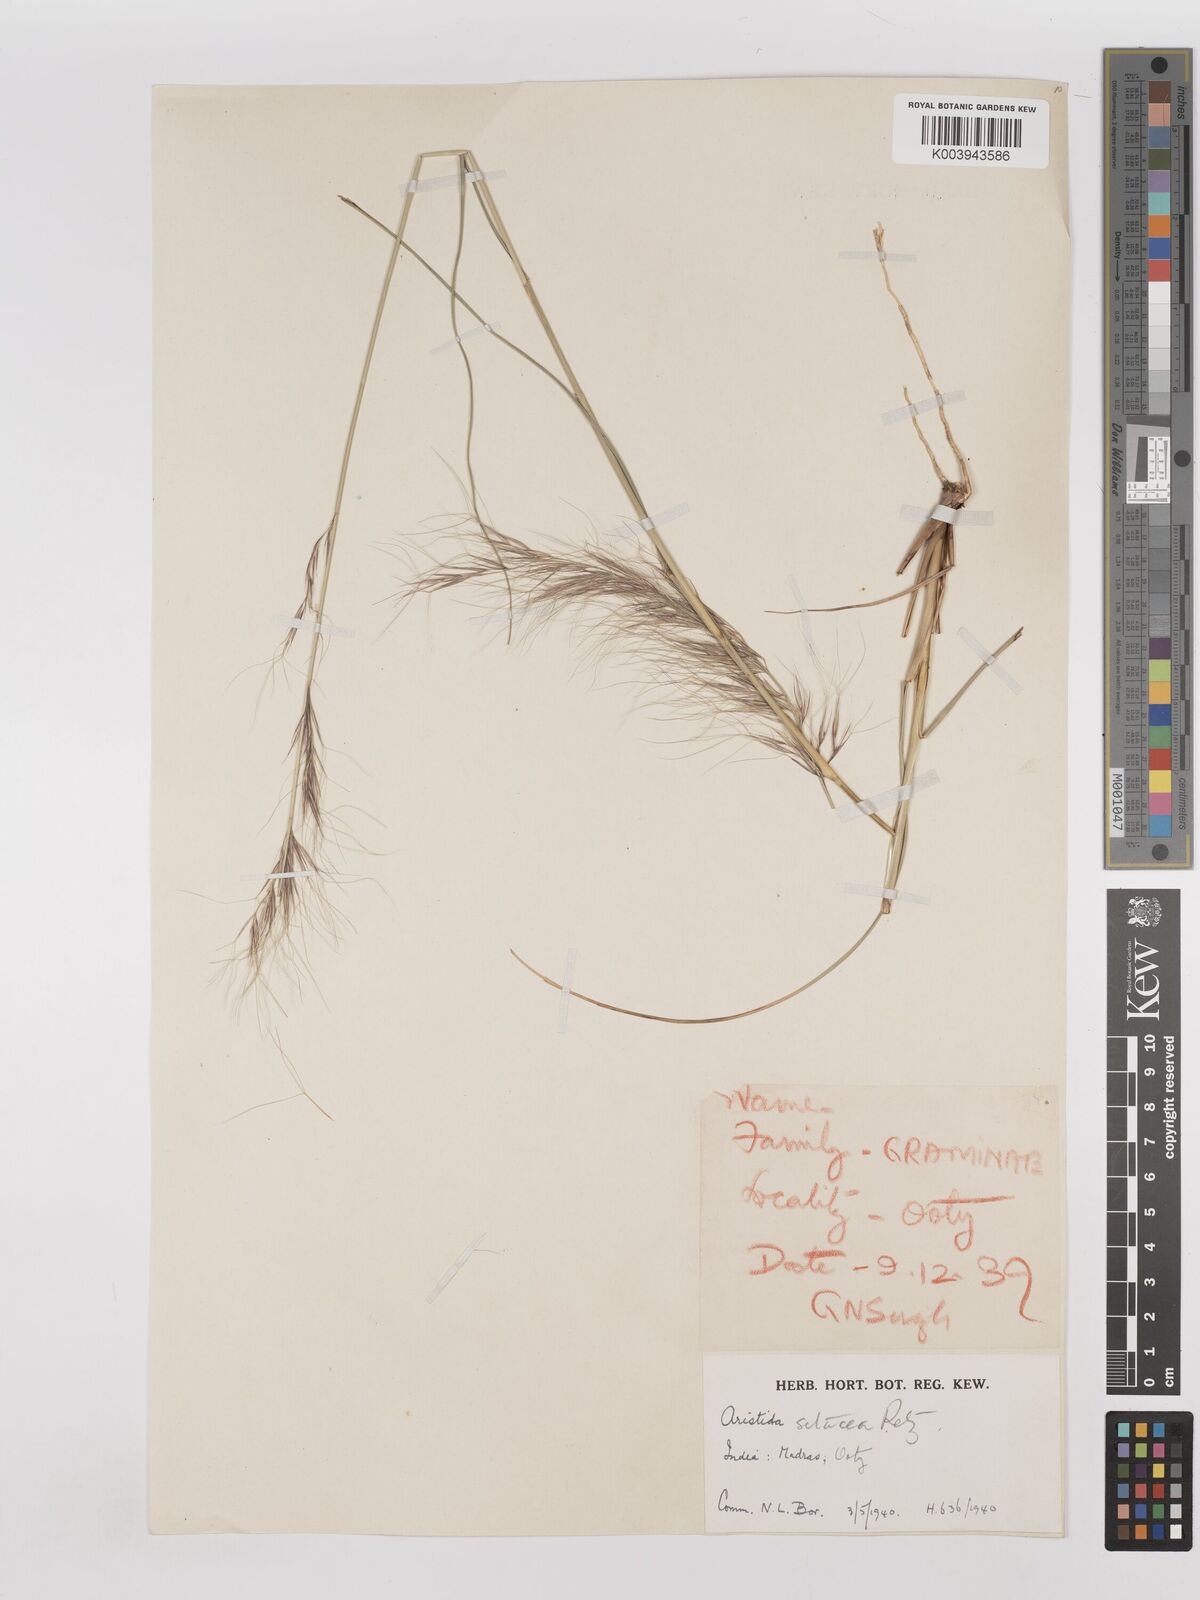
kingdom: Plantae
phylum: Tracheophyta
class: Liliopsida
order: Poales
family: Poaceae
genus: Aristida
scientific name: Aristida setacea
